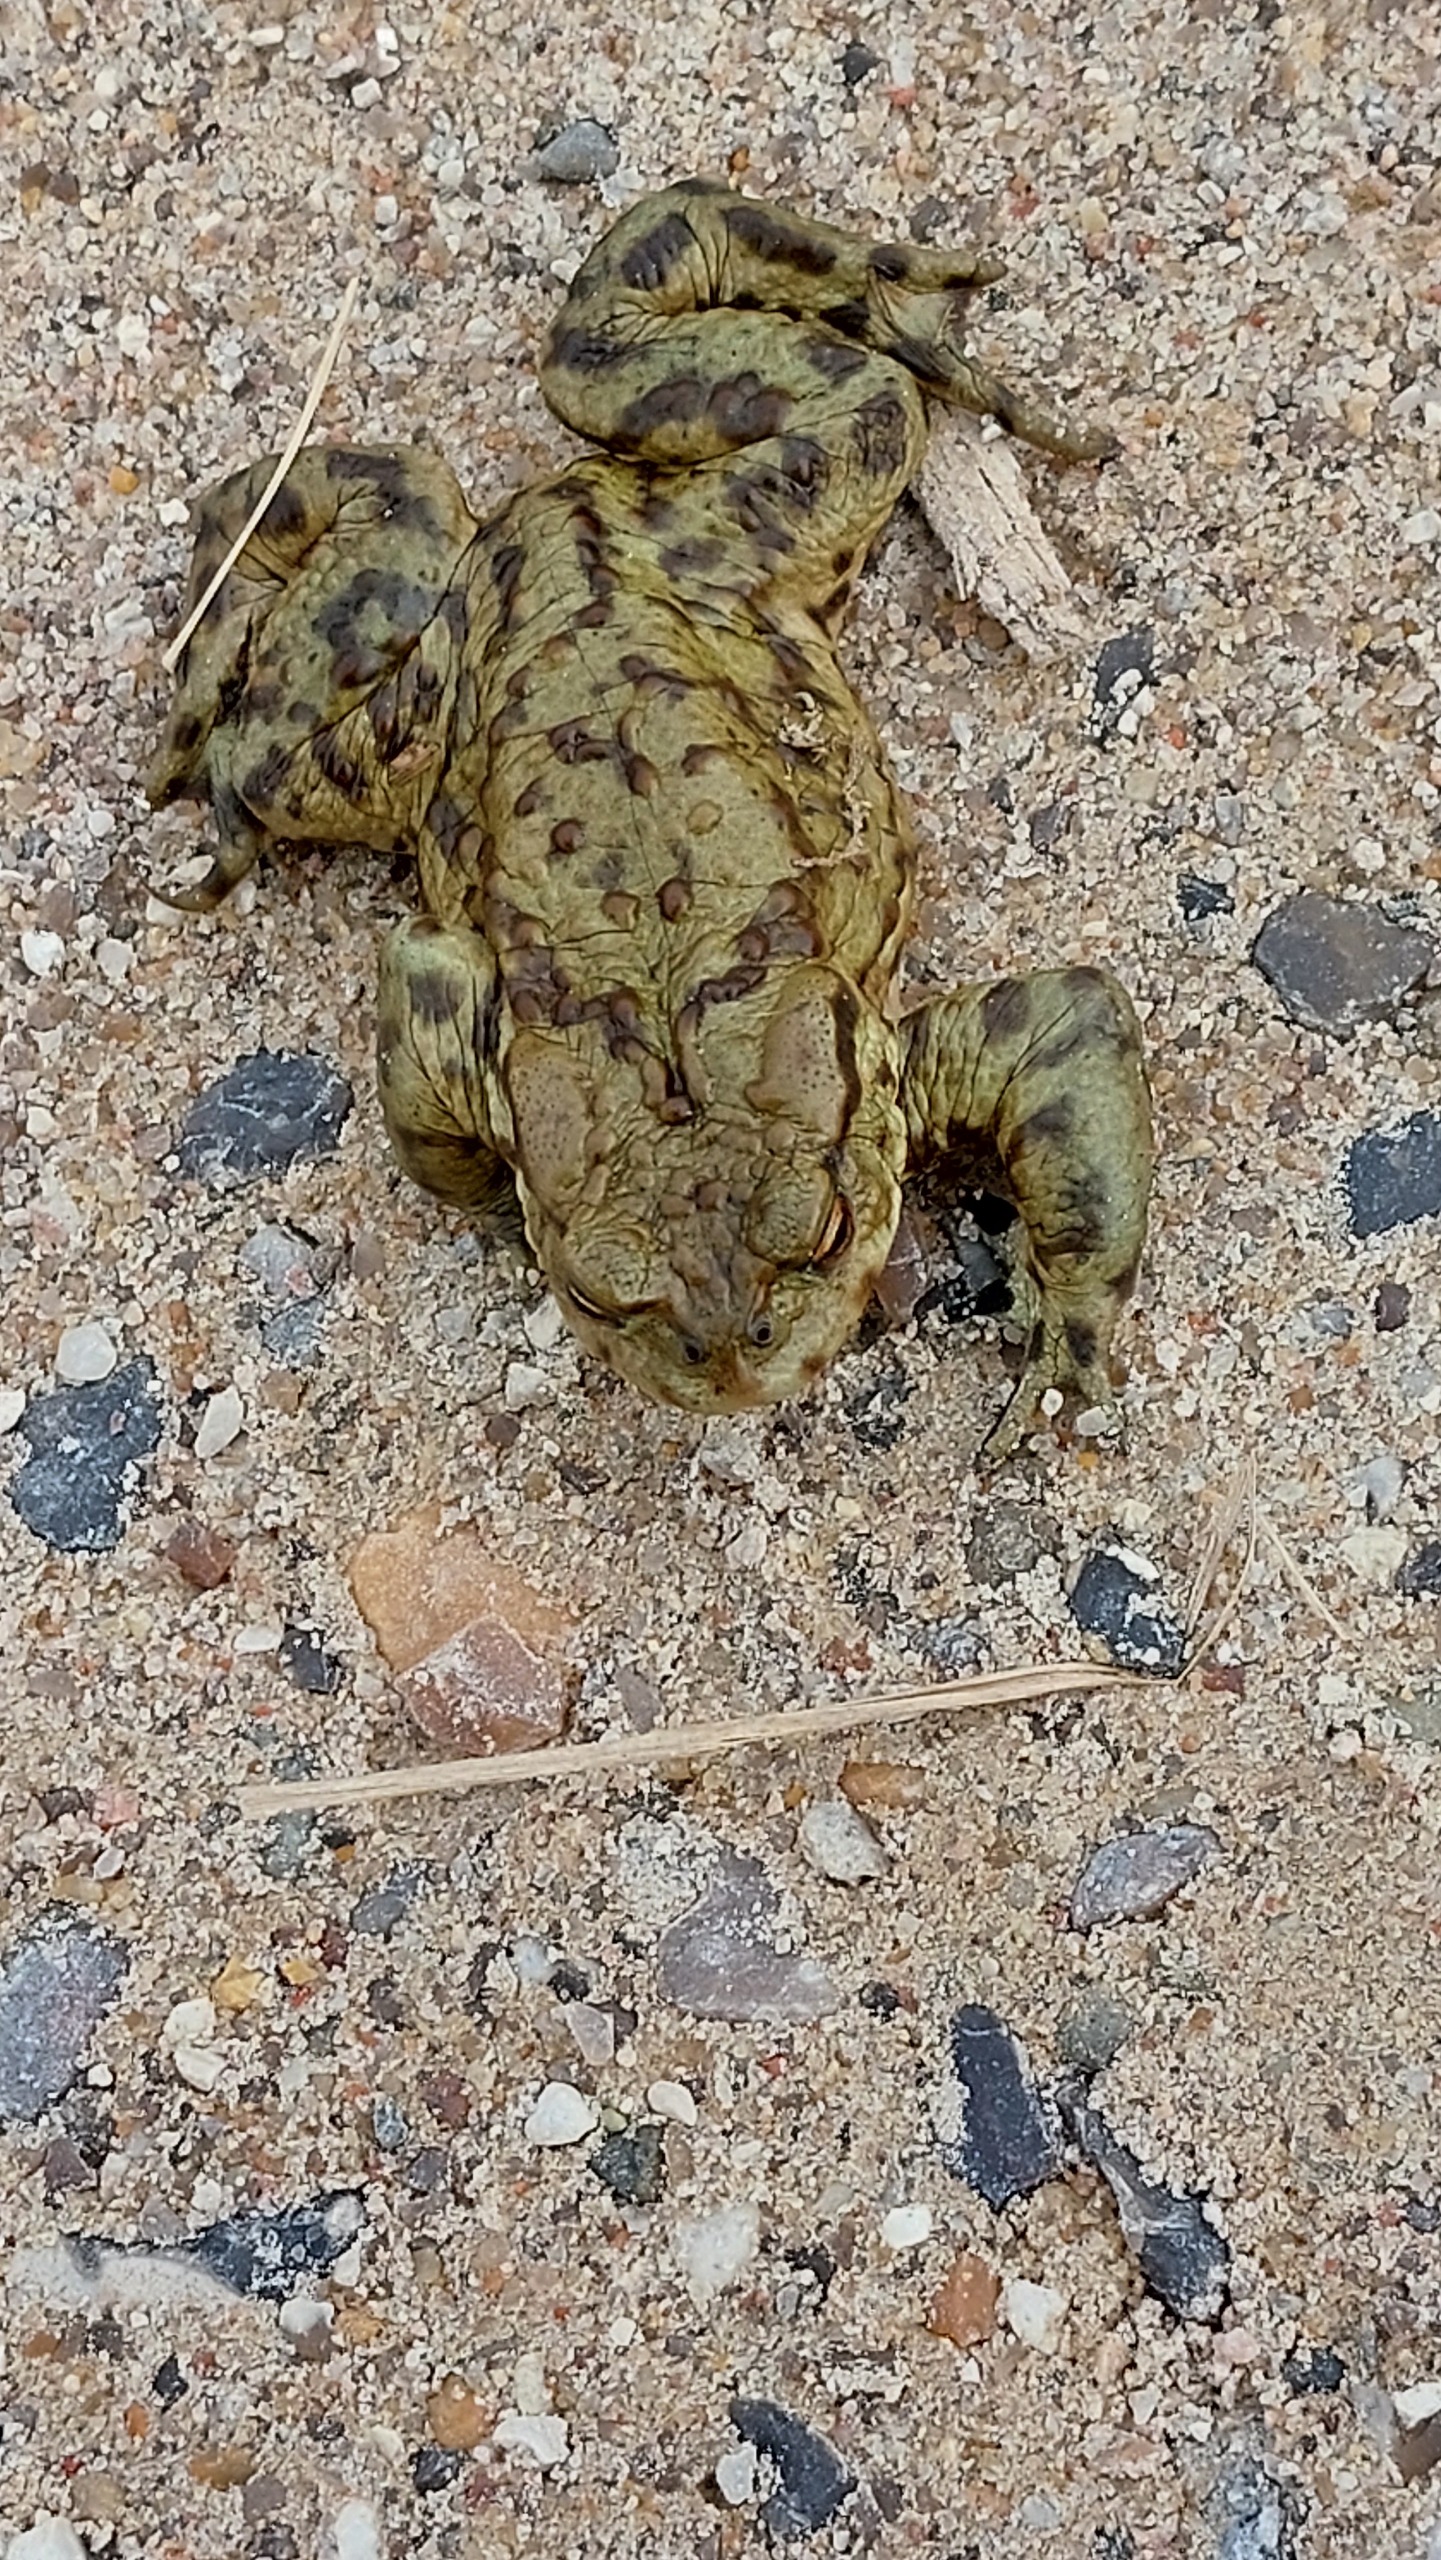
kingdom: Animalia
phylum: Chordata
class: Amphibia
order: Anura
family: Bufonidae
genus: Bufo
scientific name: Bufo bufo
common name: Skrubtudse
